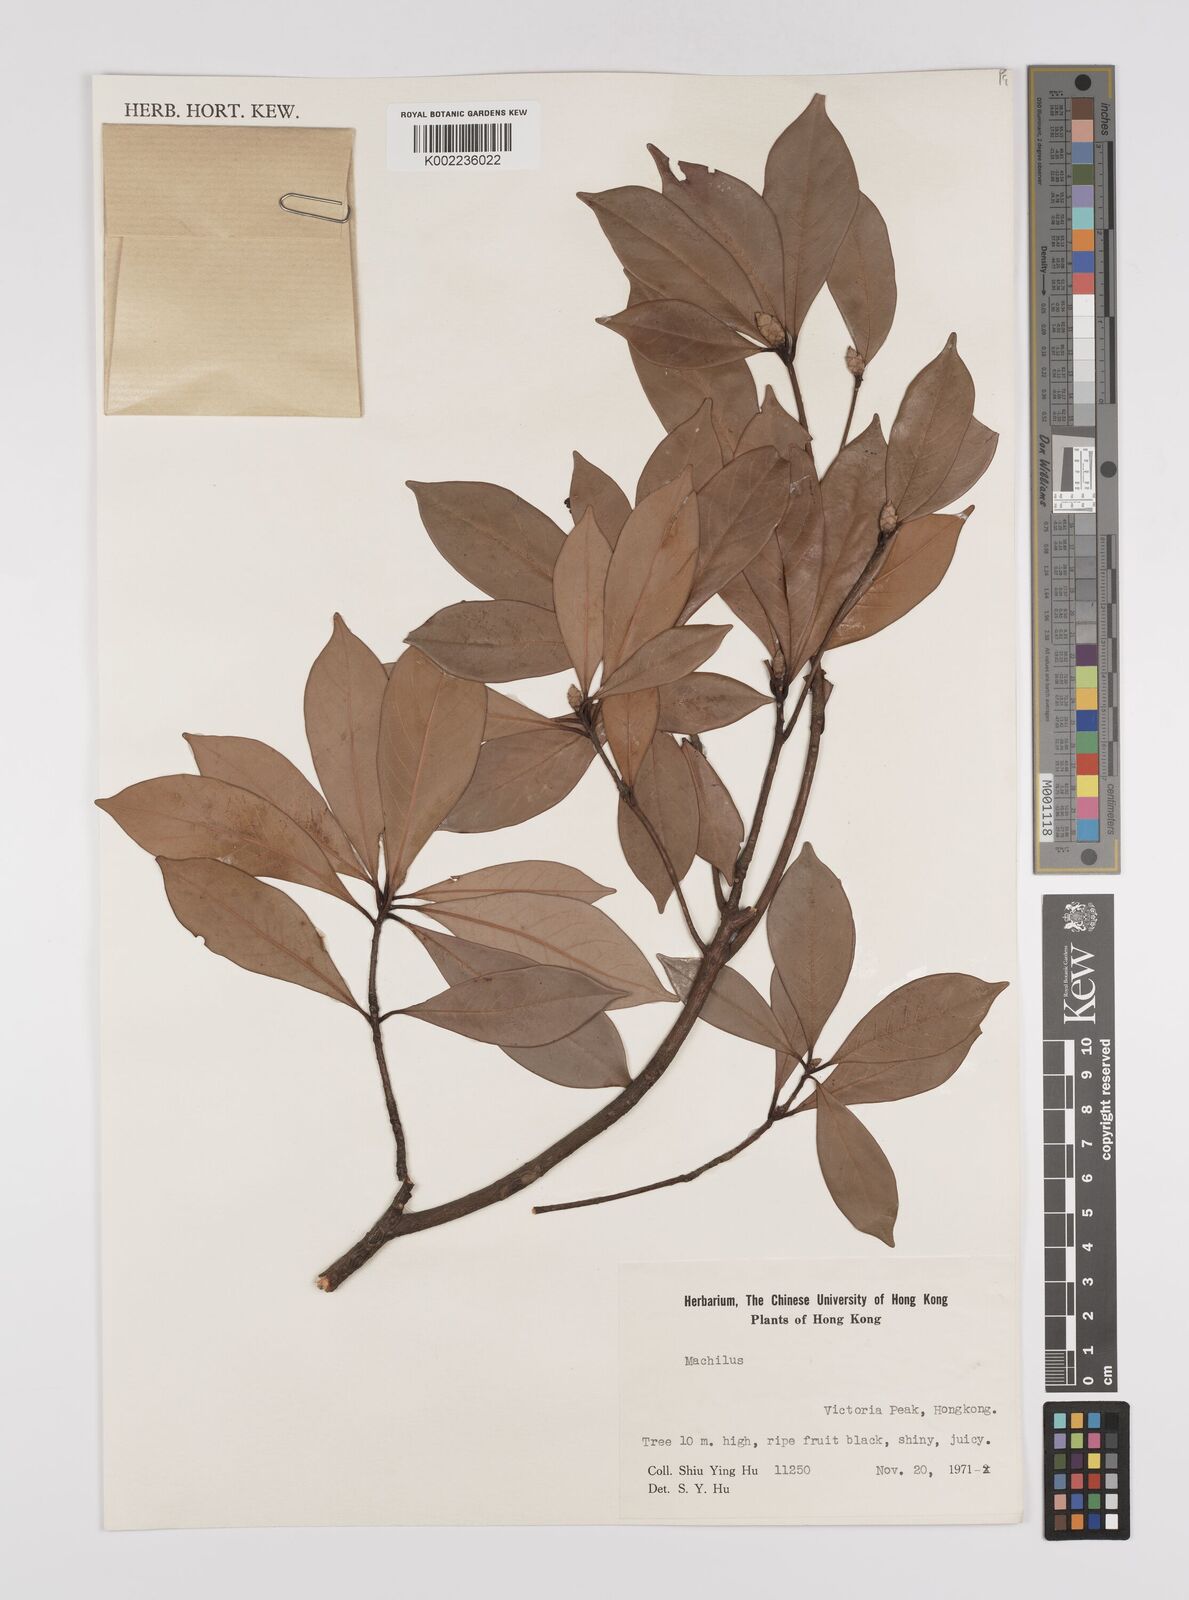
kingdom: Plantae
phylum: Tracheophyta
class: Magnoliopsida
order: Laurales
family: Lauraceae
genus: Persea
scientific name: Persea
